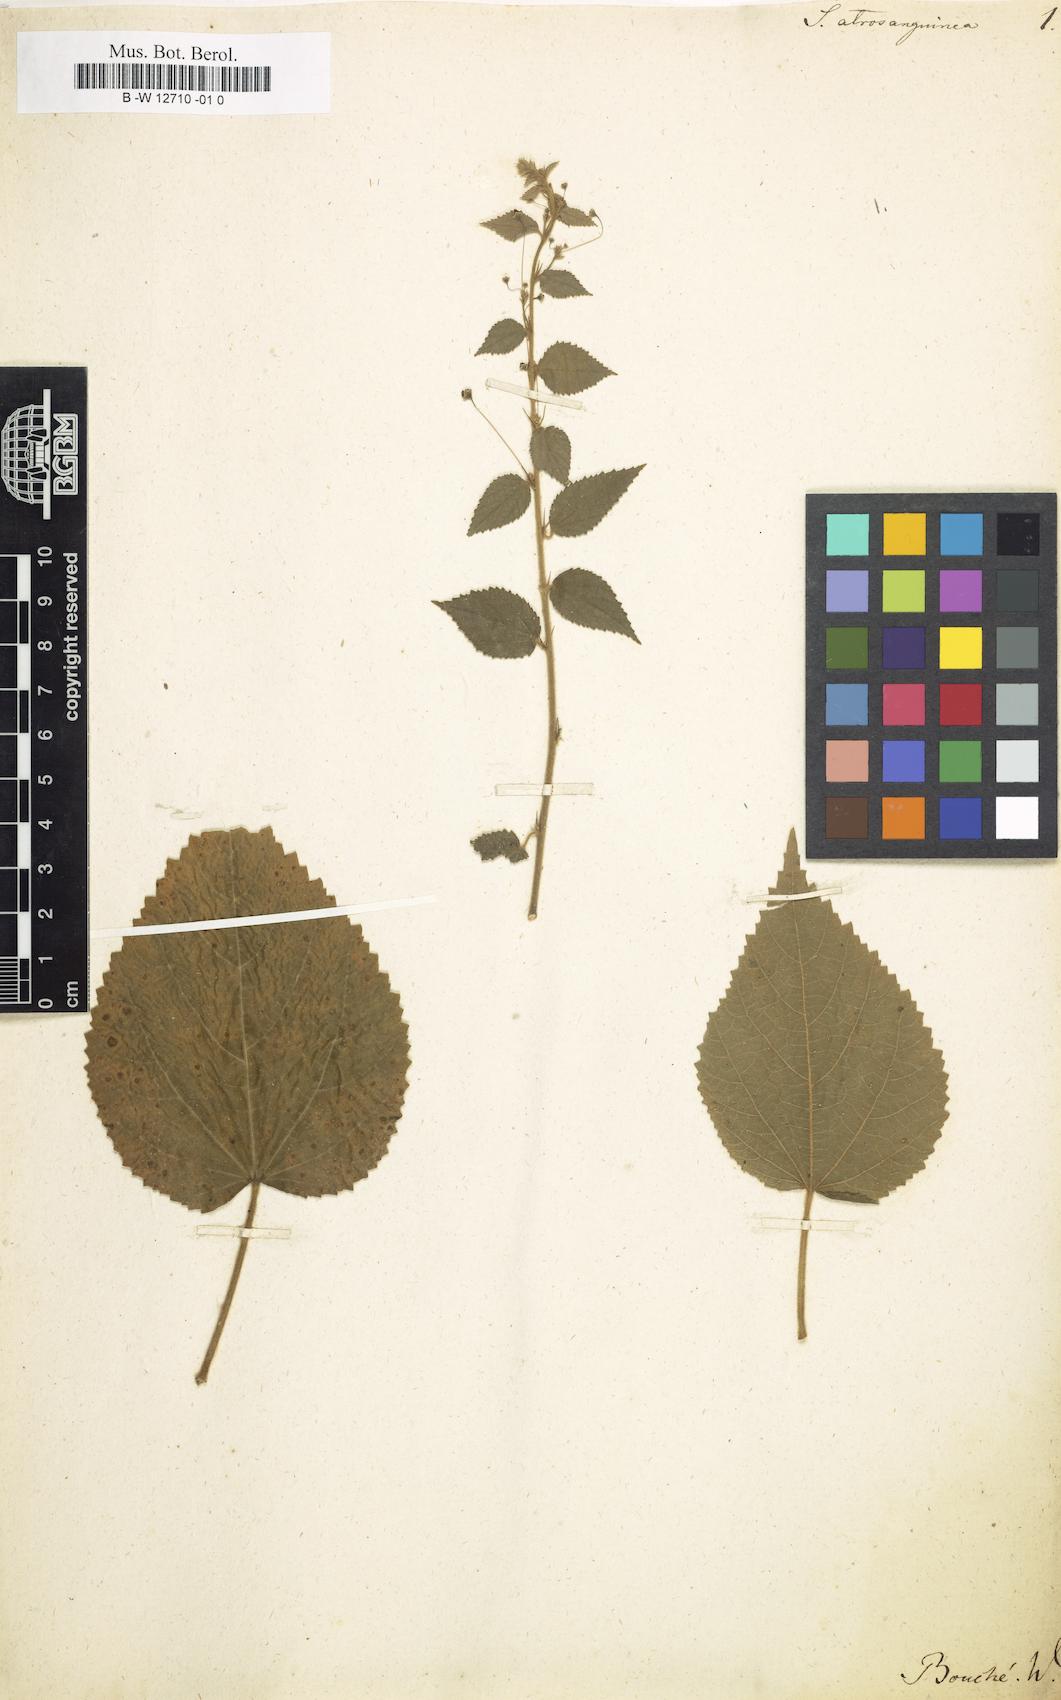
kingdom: Plantae
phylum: Tracheophyta
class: Magnoliopsida
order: Malvales
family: Malvaceae
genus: Sidastrum
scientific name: Sidastrum paniculatum
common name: Panicled sandmallow
